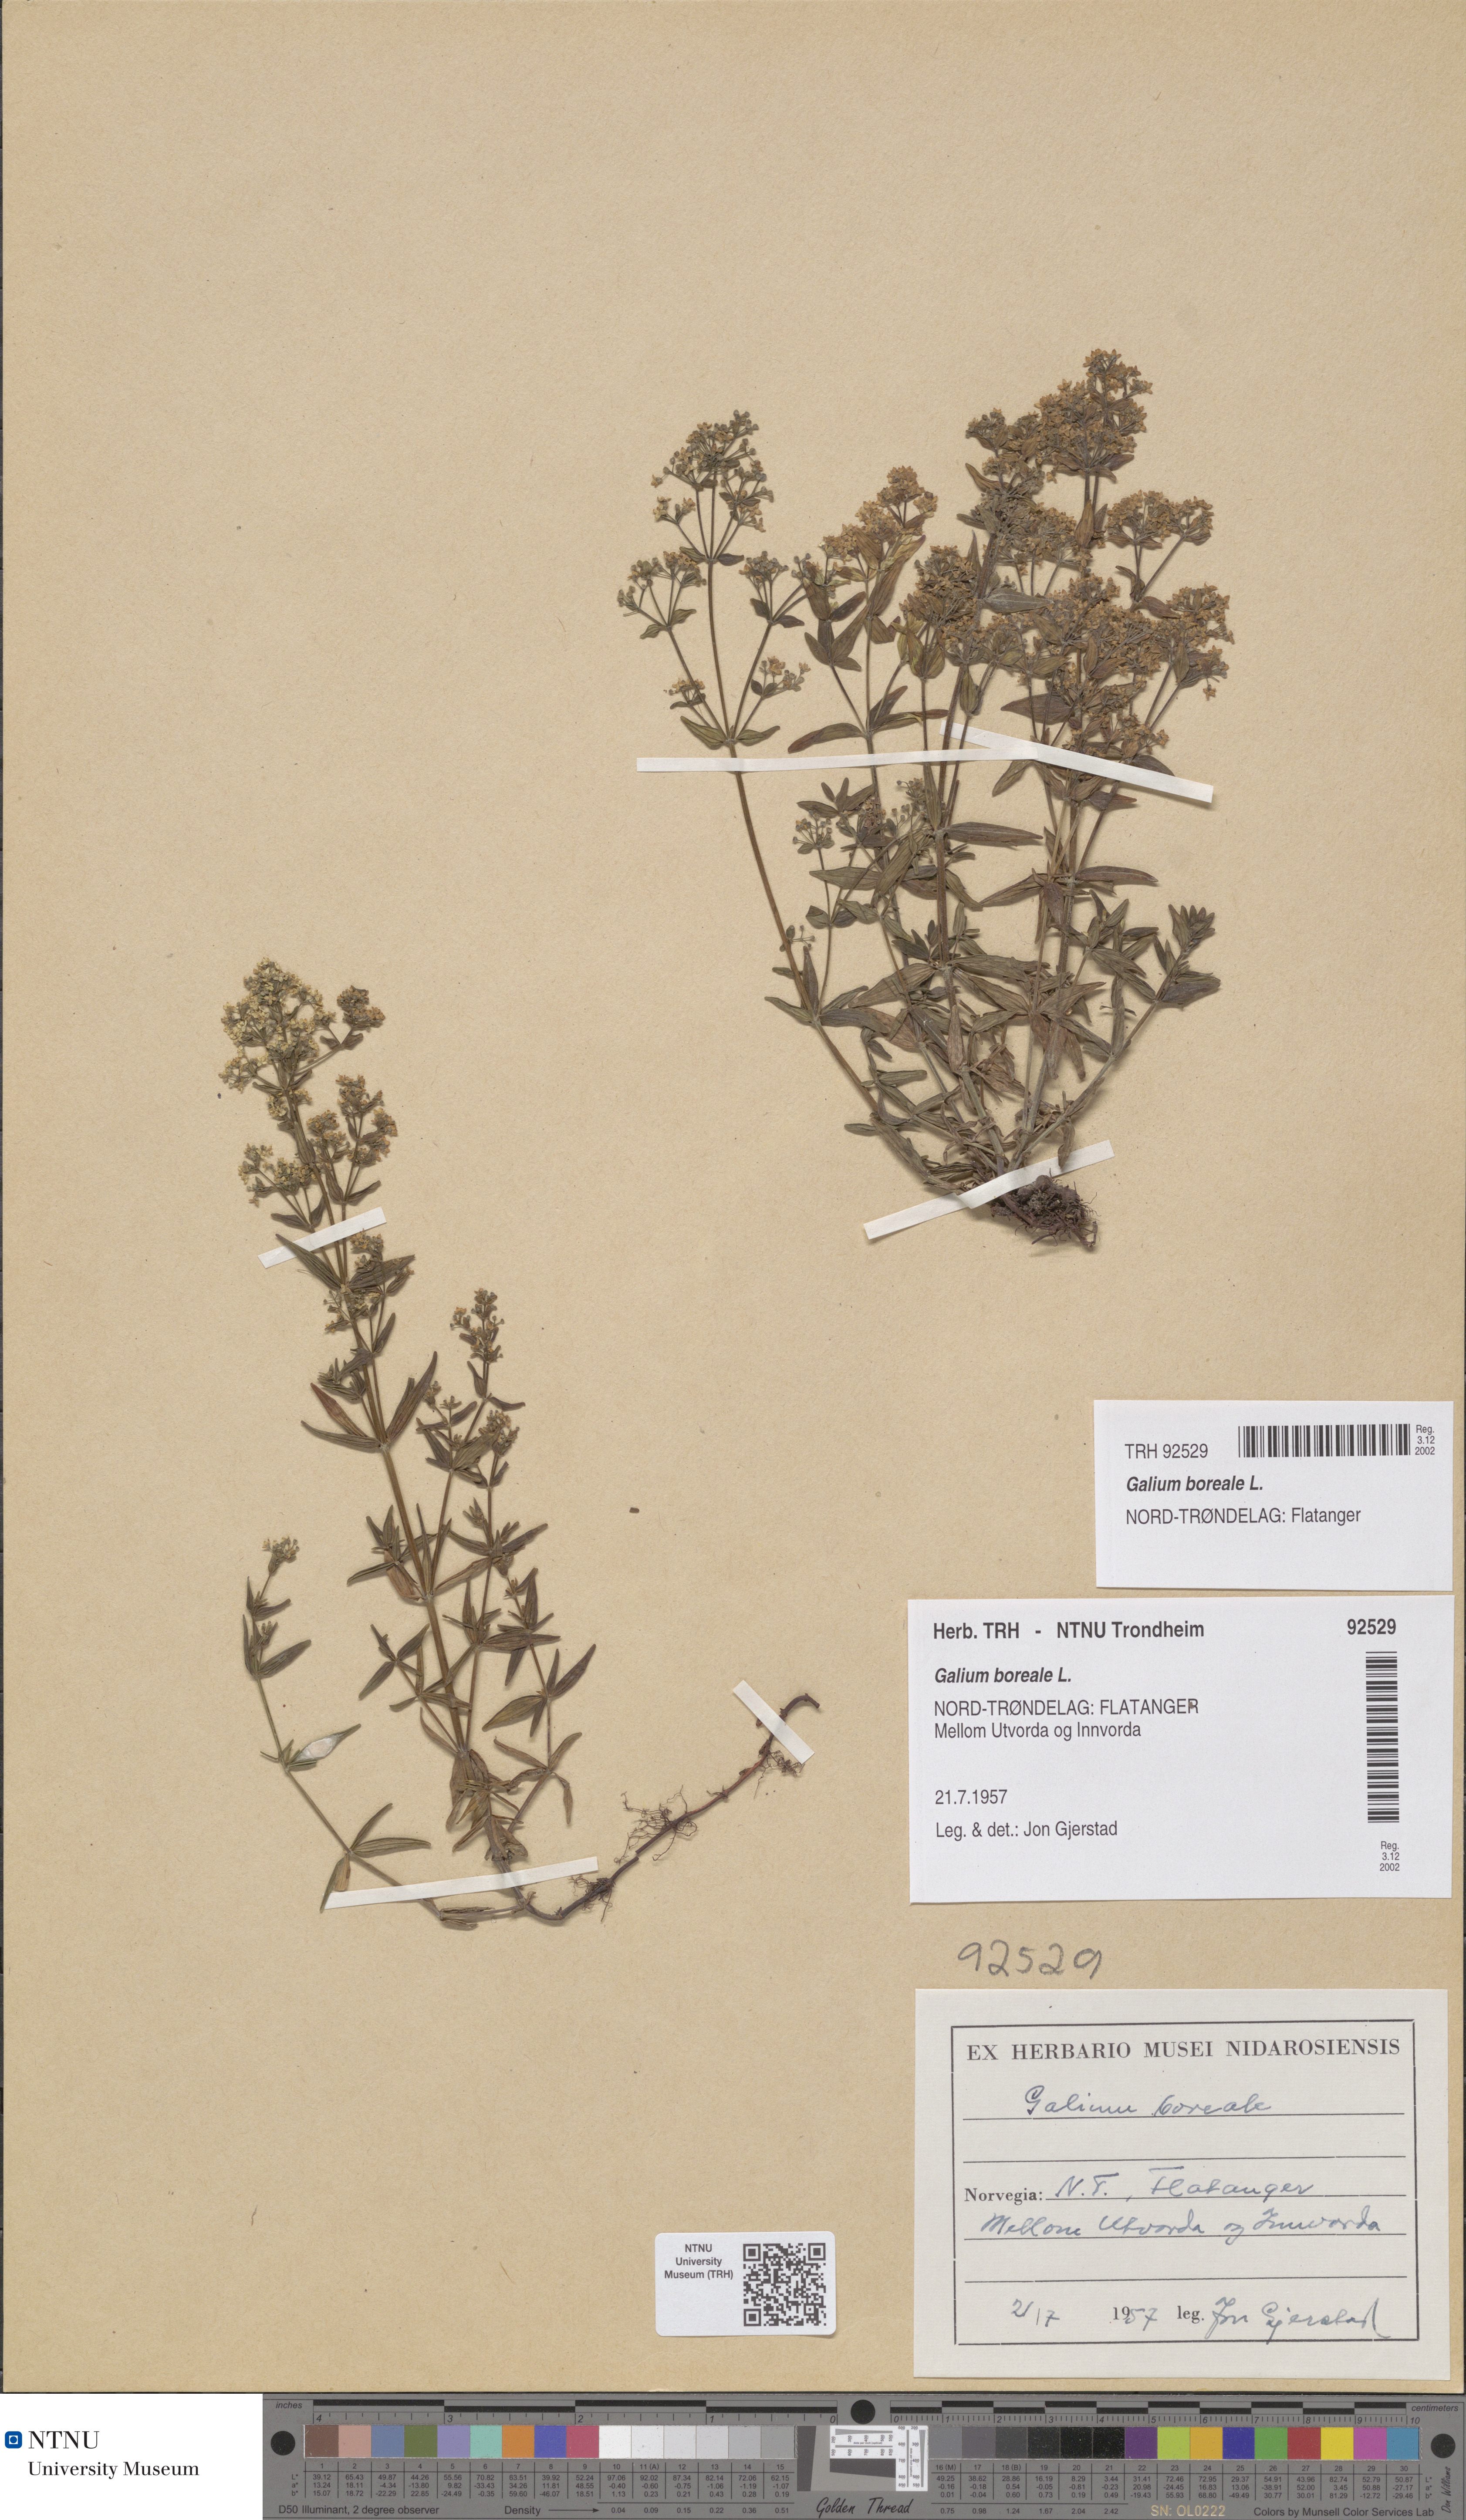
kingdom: Plantae
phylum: Tracheophyta
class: Magnoliopsida
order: Gentianales
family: Rubiaceae
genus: Galium
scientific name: Galium boreale
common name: Northern bedstraw
